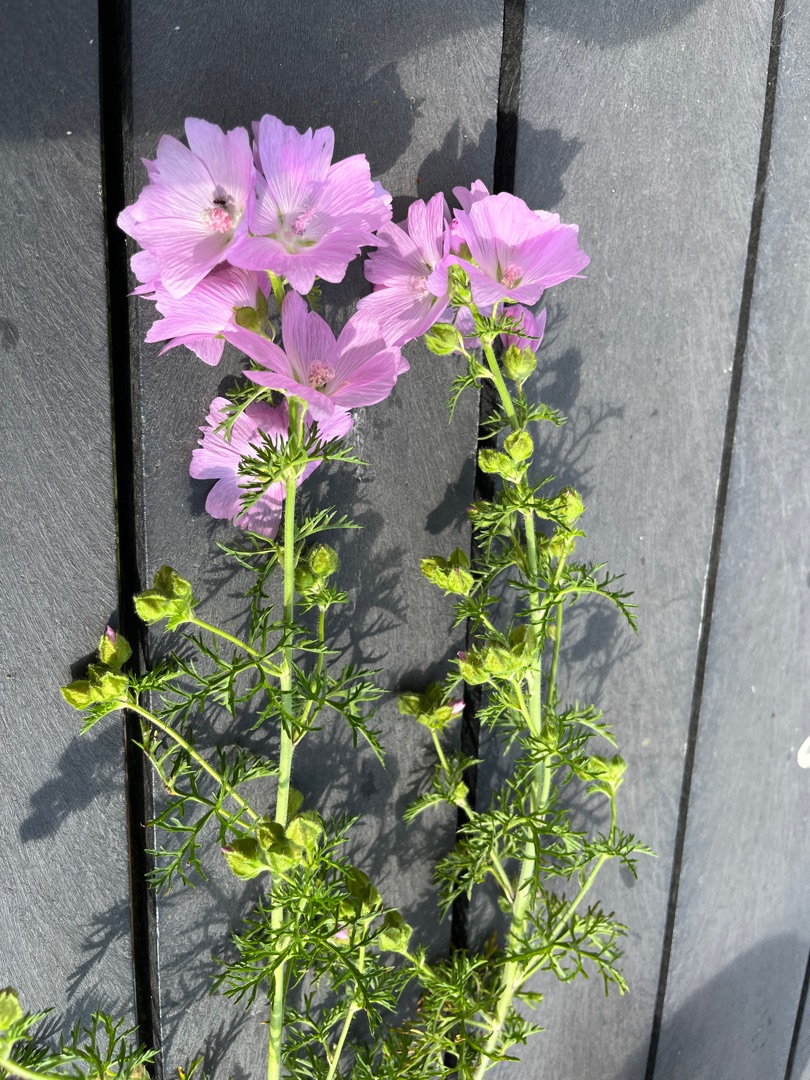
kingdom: Plantae
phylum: Tracheophyta
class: Magnoliopsida
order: Malvales
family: Malvaceae
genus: Malva
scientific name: Malva moschata
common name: Moskus-katost
